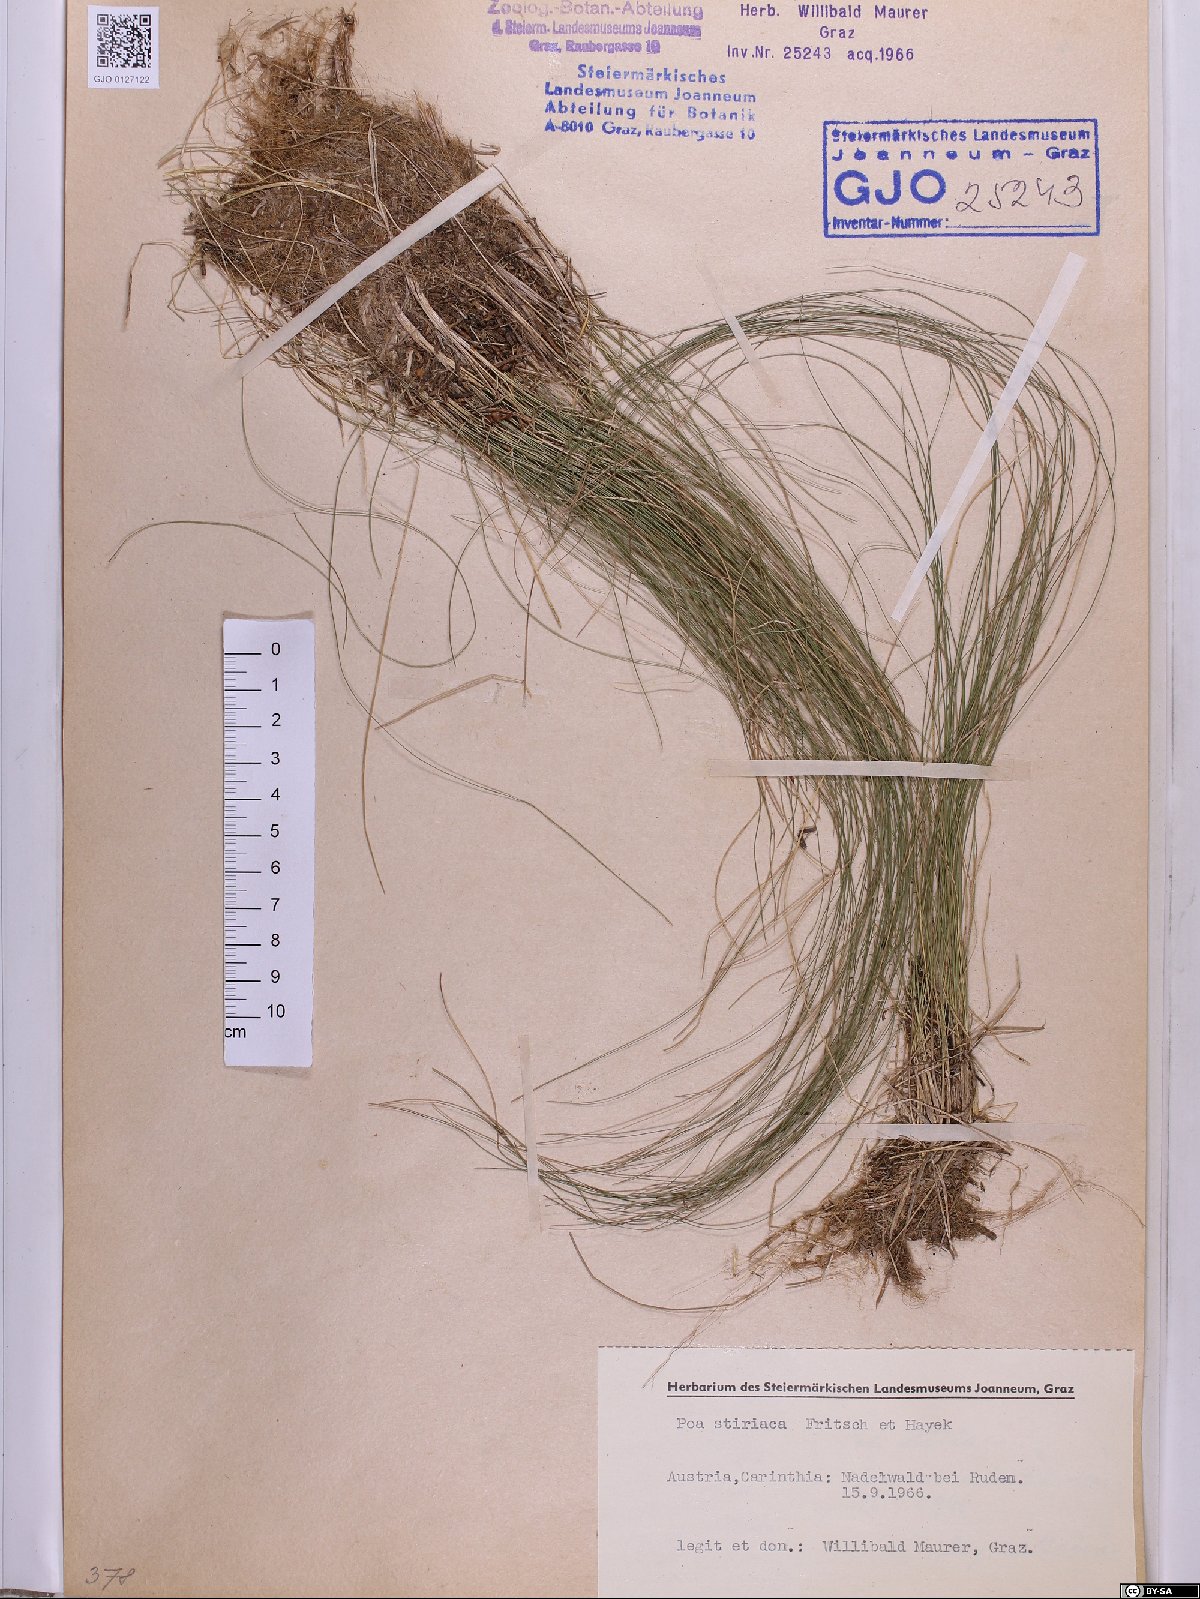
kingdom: Plantae
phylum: Tracheophyta
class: Liliopsida
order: Poales
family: Poaceae
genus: Poa
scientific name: Poa stiriaca
